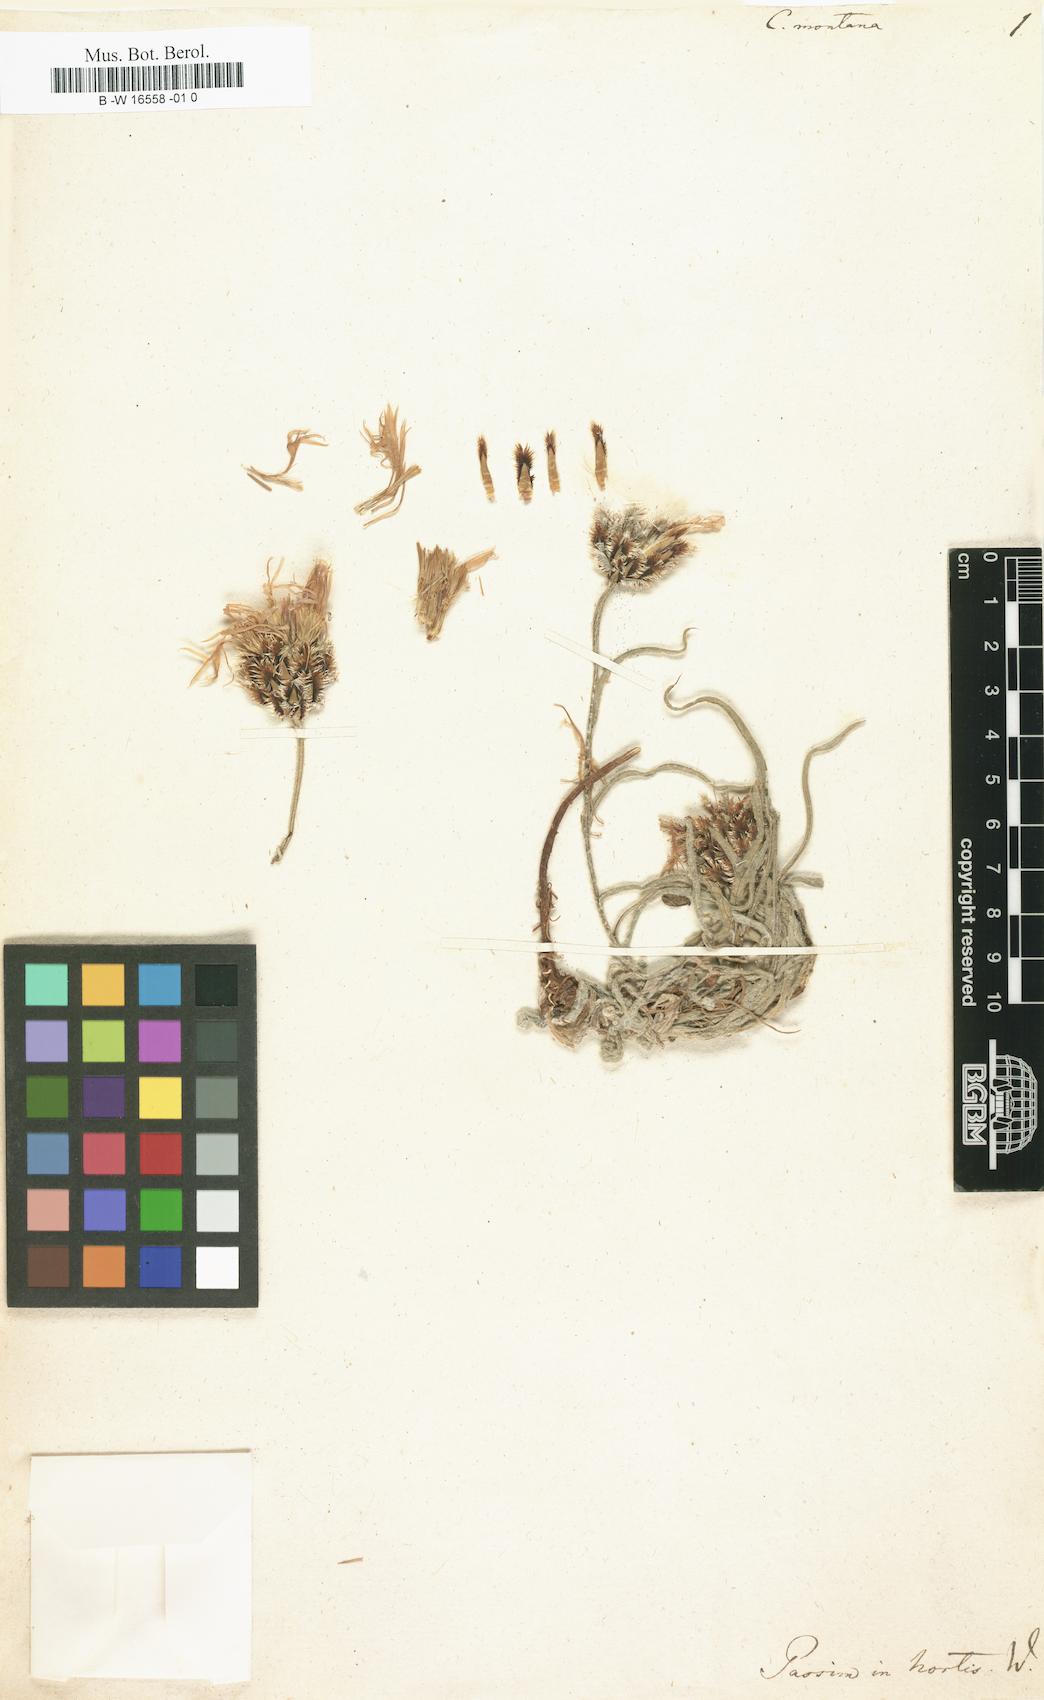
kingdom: Plantae
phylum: Tracheophyta
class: Magnoliopsida
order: Asterales
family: Asteraceae
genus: Centaurea
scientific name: Centaurea montana
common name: Perennial cornflower
